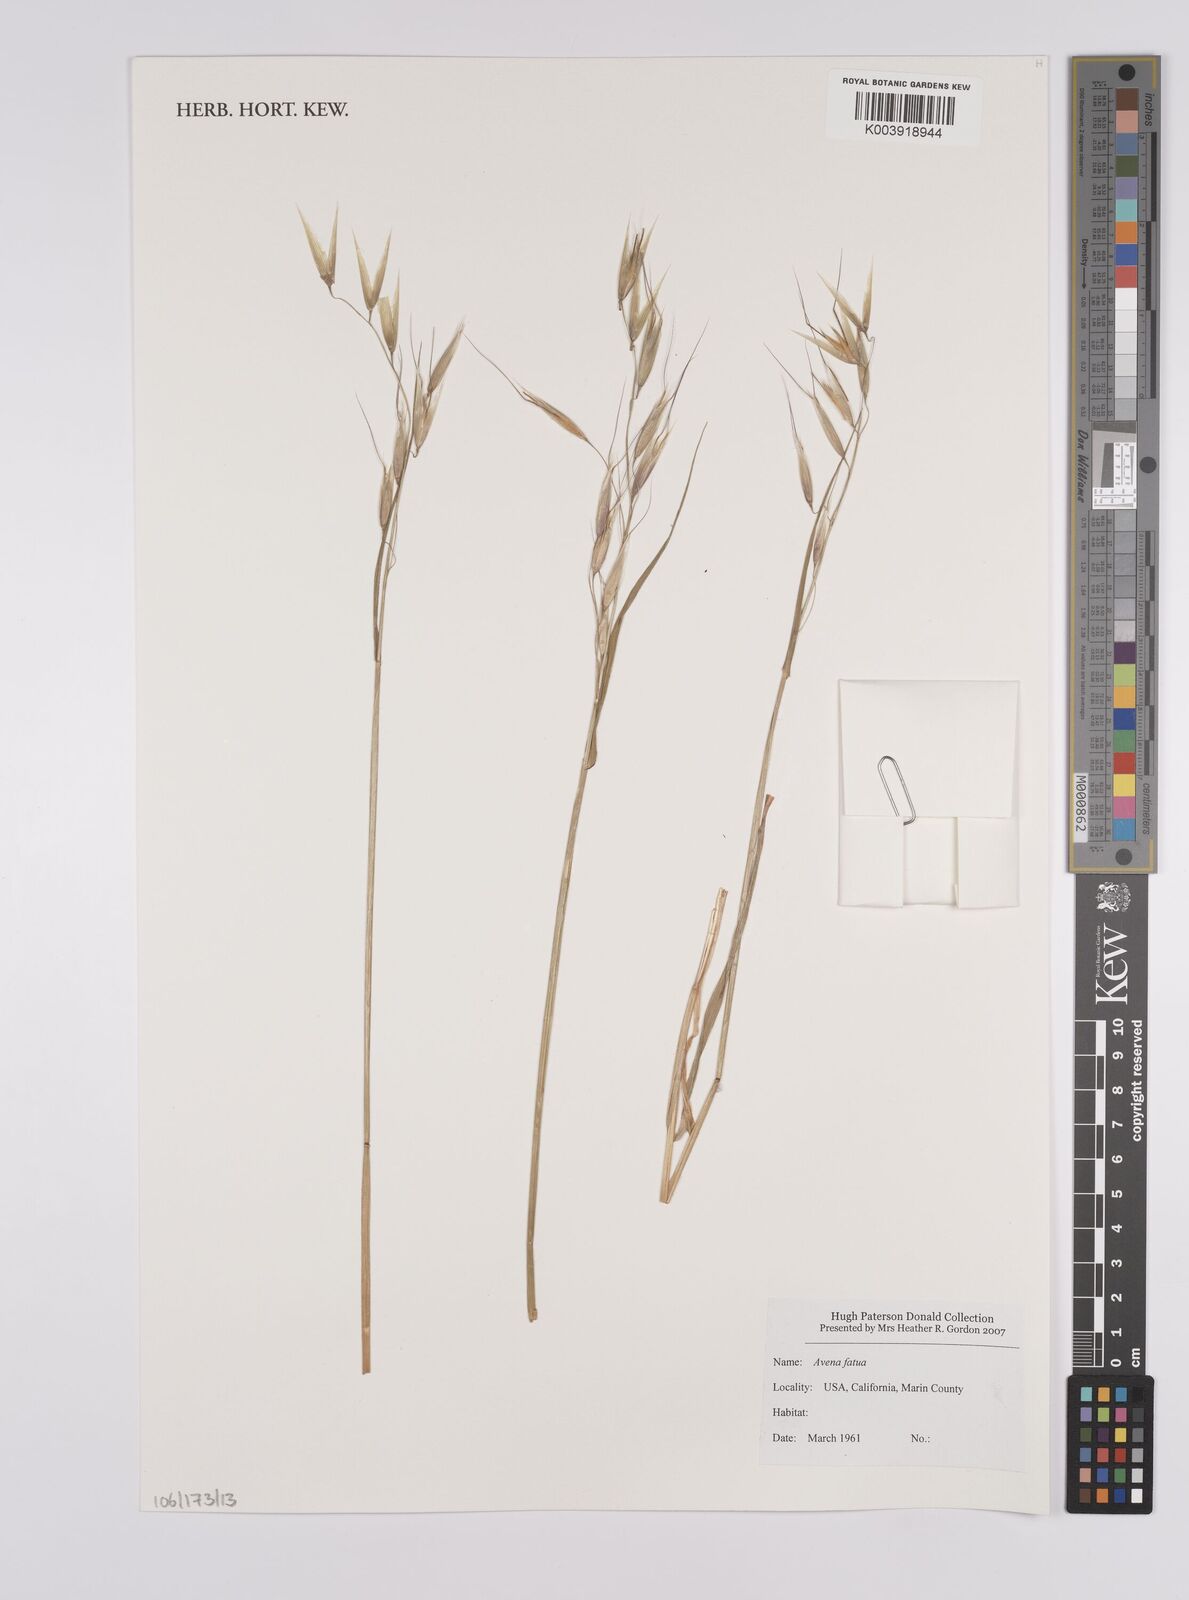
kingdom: Plantae
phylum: Tracheophyta
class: Liliopsida
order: Poales
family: Poaceae
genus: Avena
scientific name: Avena fatua
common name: Wild oat
